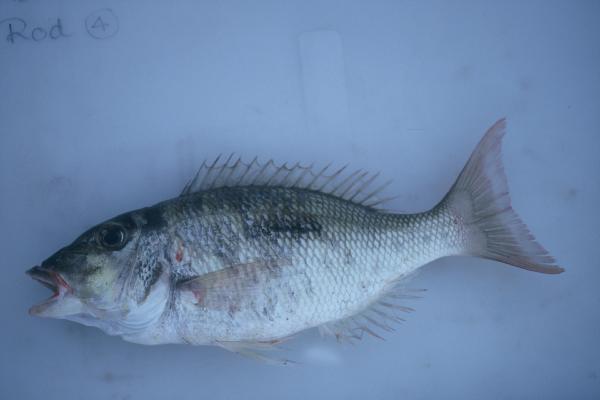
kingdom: Animalia
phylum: Chordata
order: Perciformes
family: Lethrinidae
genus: Lethrinus
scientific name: Lethrinus harak
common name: Blackspot emperor
